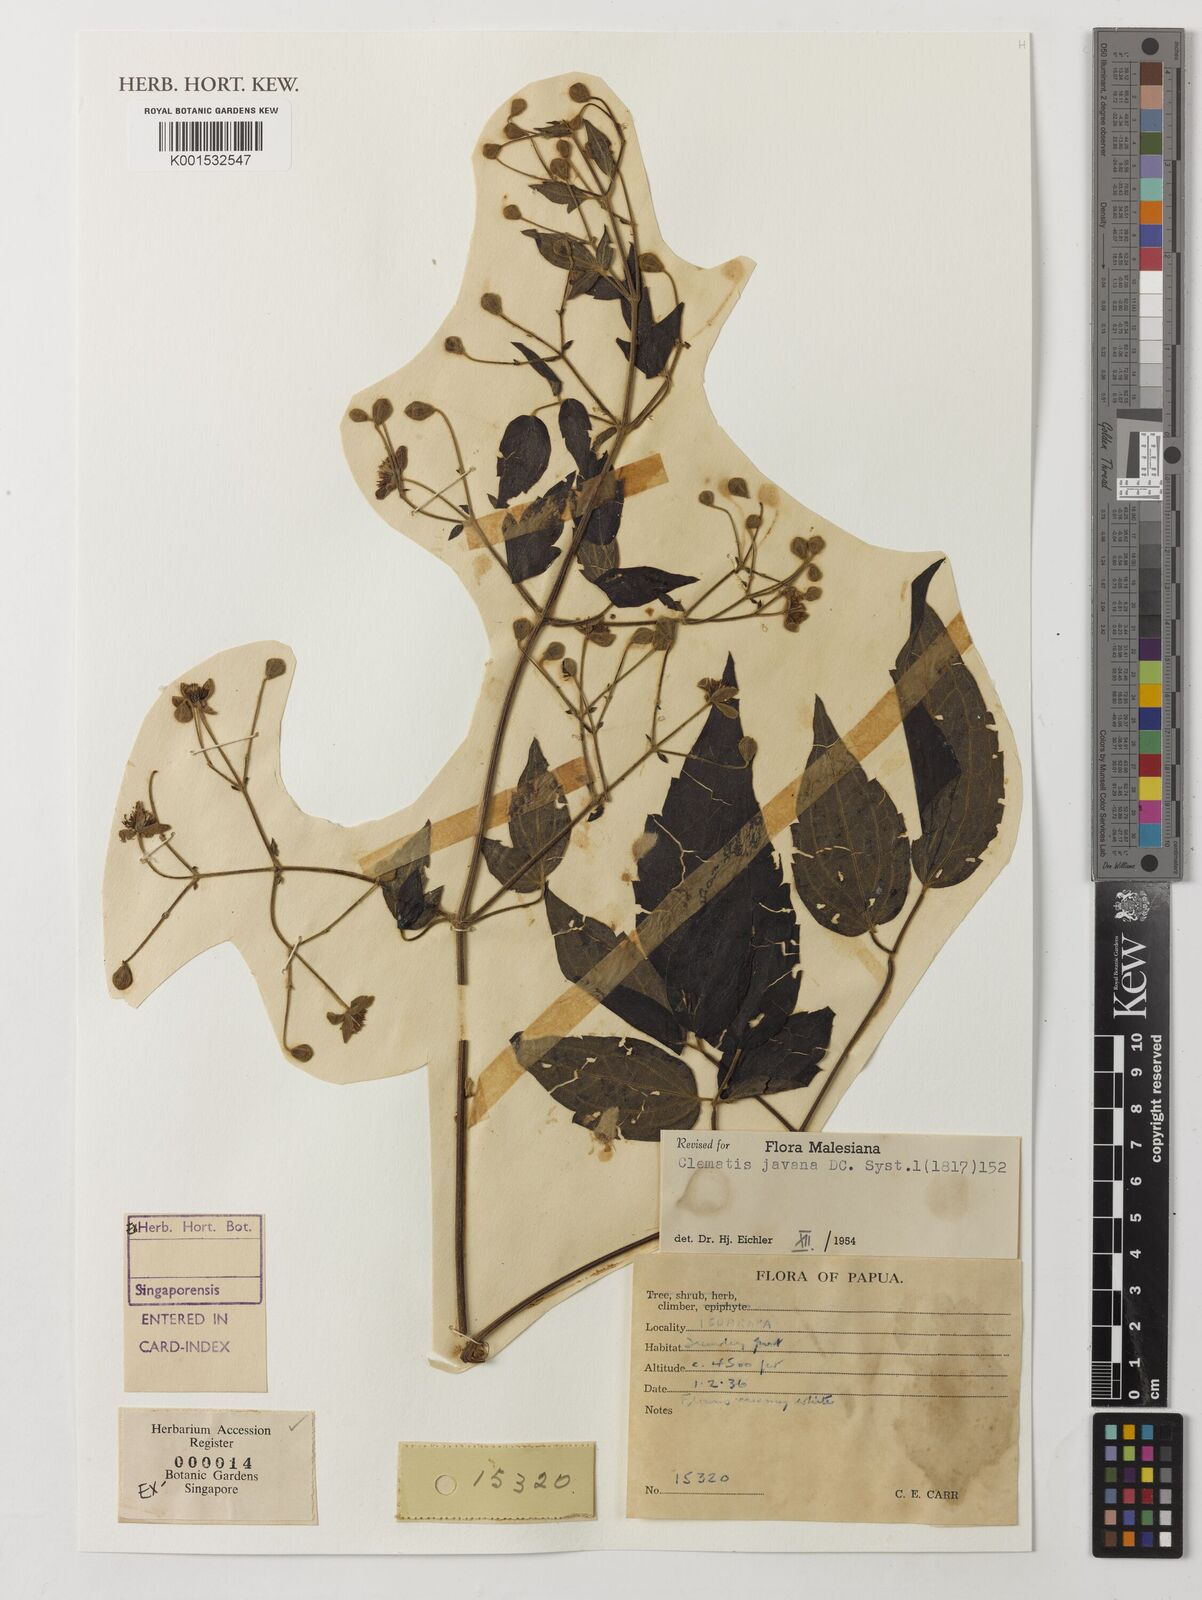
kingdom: Plantae
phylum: Tracheophyta
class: Magnoliopsida
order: Ranunculales
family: Ranunculaceae
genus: Clematis
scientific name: Clematis gouriana
